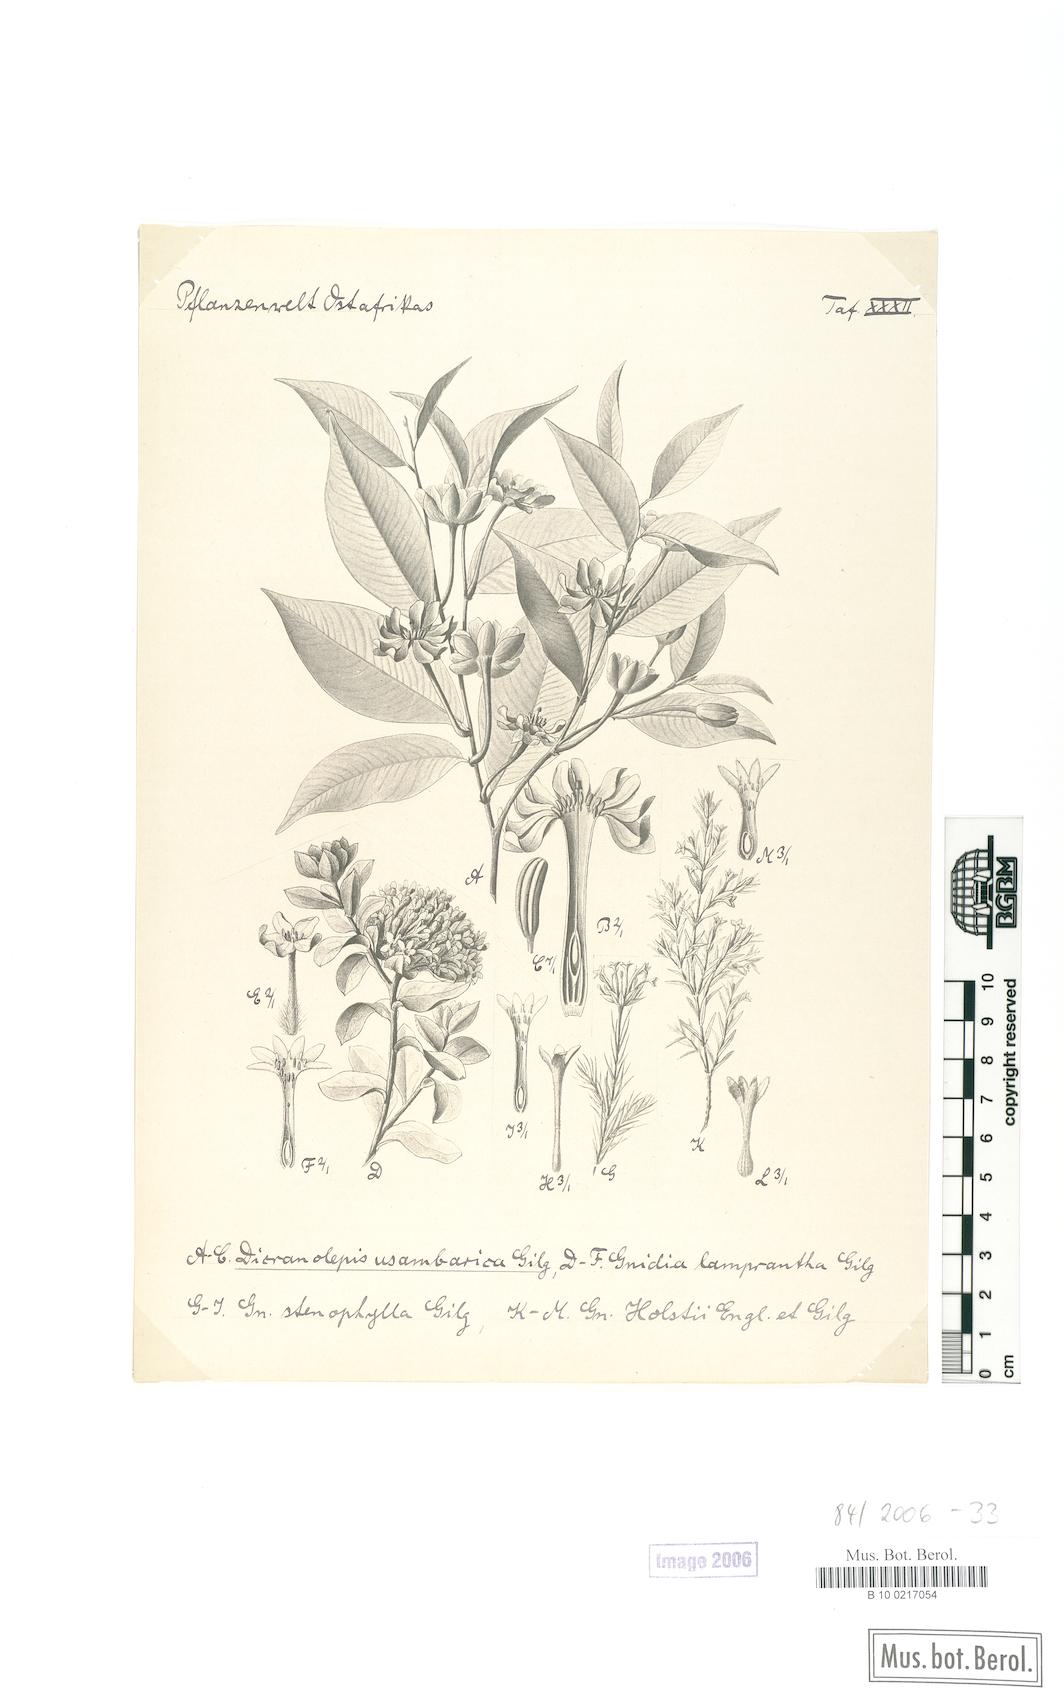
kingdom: Plantae
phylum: Tracheophyta
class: Magnoliopsida
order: Malvales
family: Thymelaeaceae
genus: Dicranolepis
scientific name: Dicranolepis usambarica
